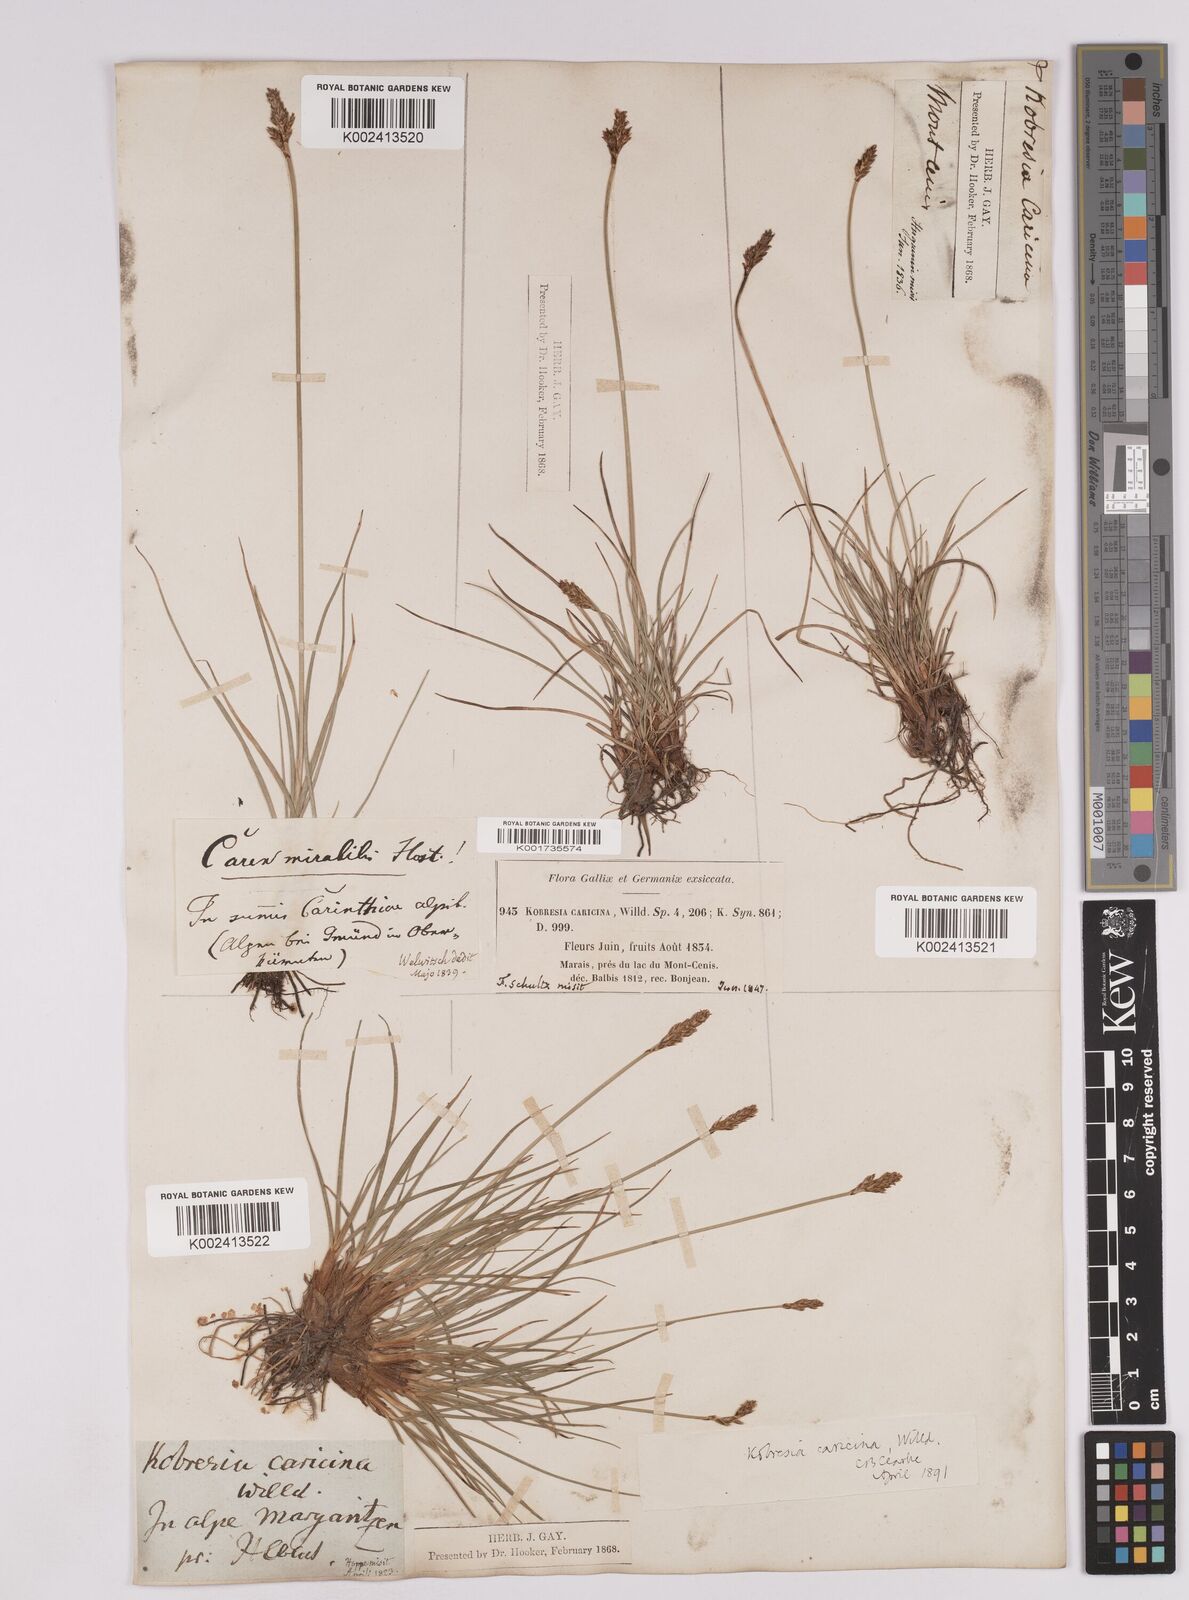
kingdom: Plantae
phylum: Tracheophyta
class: Liliopsida
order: Poales
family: Cyperaceae
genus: Carex
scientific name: Carex simpliciuscula
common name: Simple bog sedge
